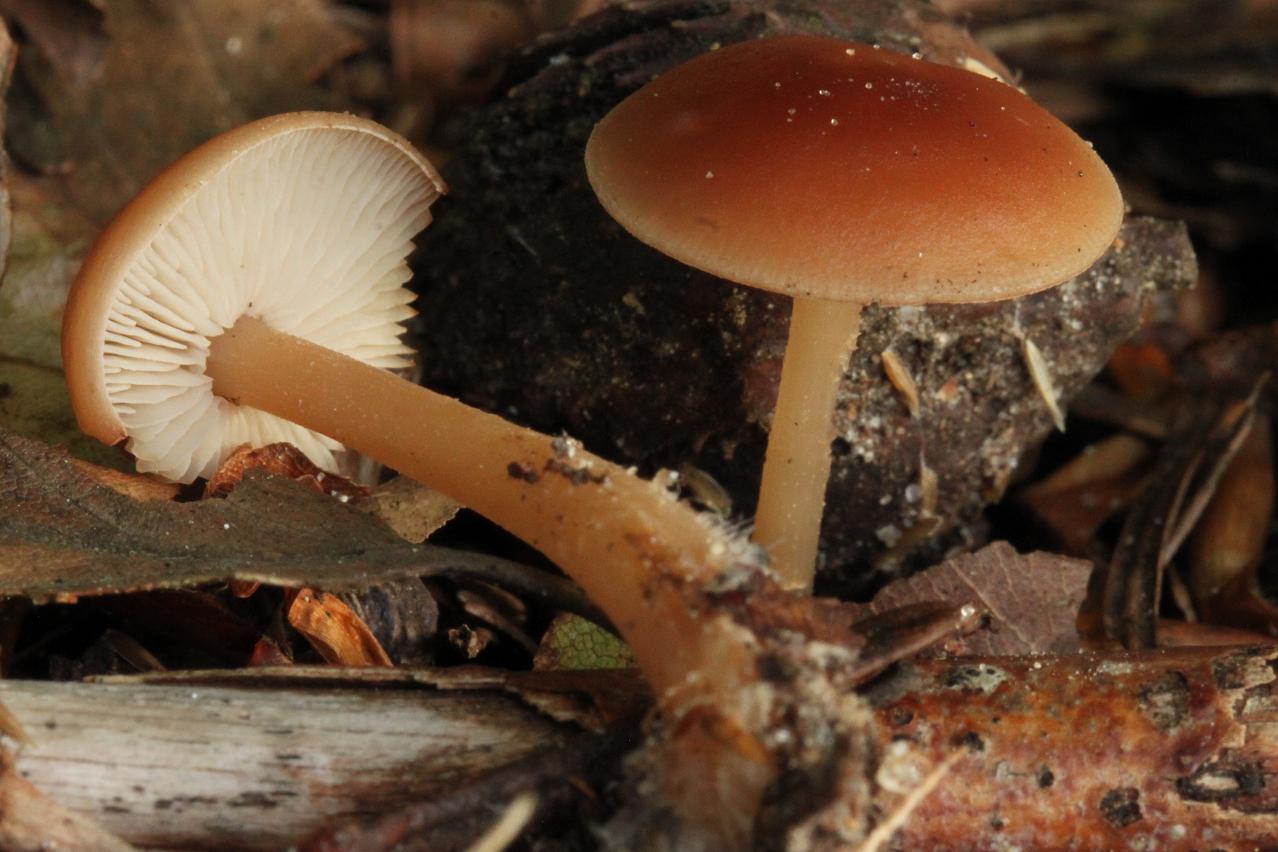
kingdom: Fungi
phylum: Basidiomycota
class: Agaricomycetes
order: Agaricales
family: Omphalotaceae
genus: Gymnopus
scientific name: Gymnopus
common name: fladhat
